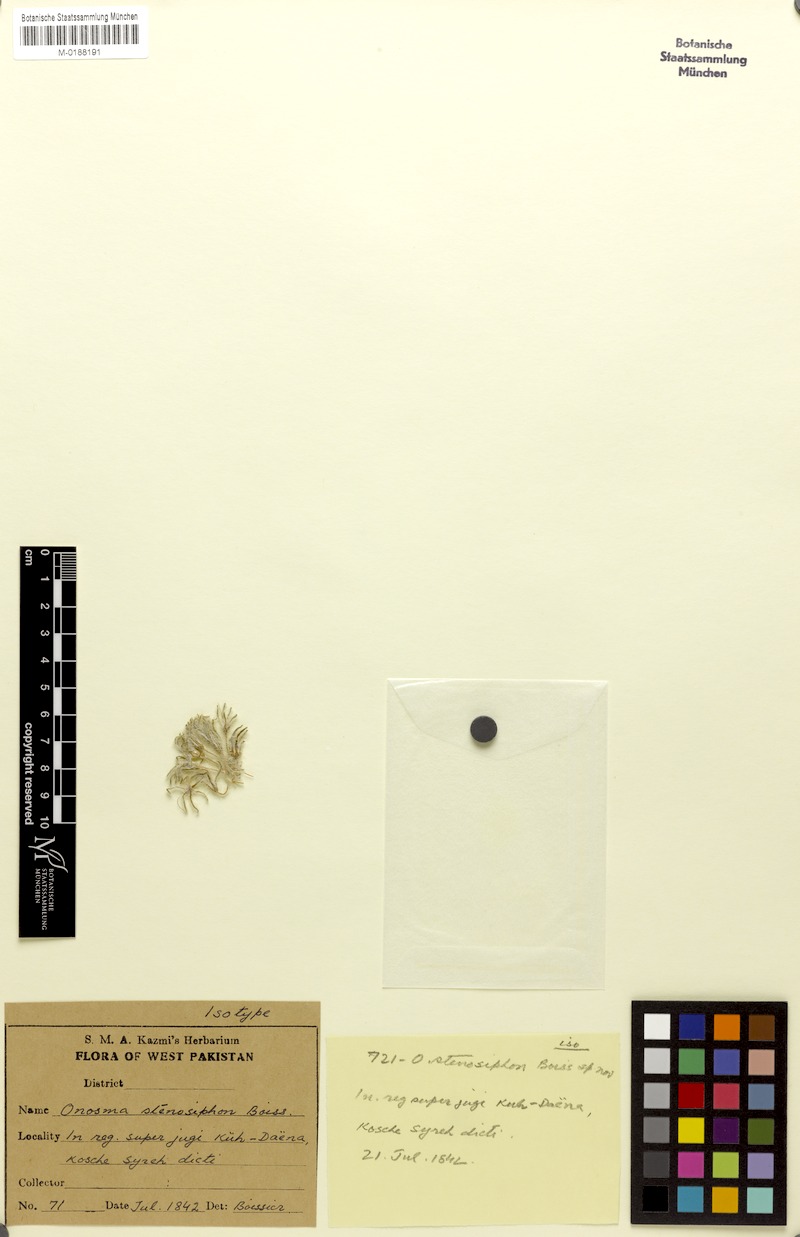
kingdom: Plantae
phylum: Tracheophyta
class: Magnoliopsida
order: Boraginales
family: Boraginaceae
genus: Maharanga
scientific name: Maharanga stenosiphon
